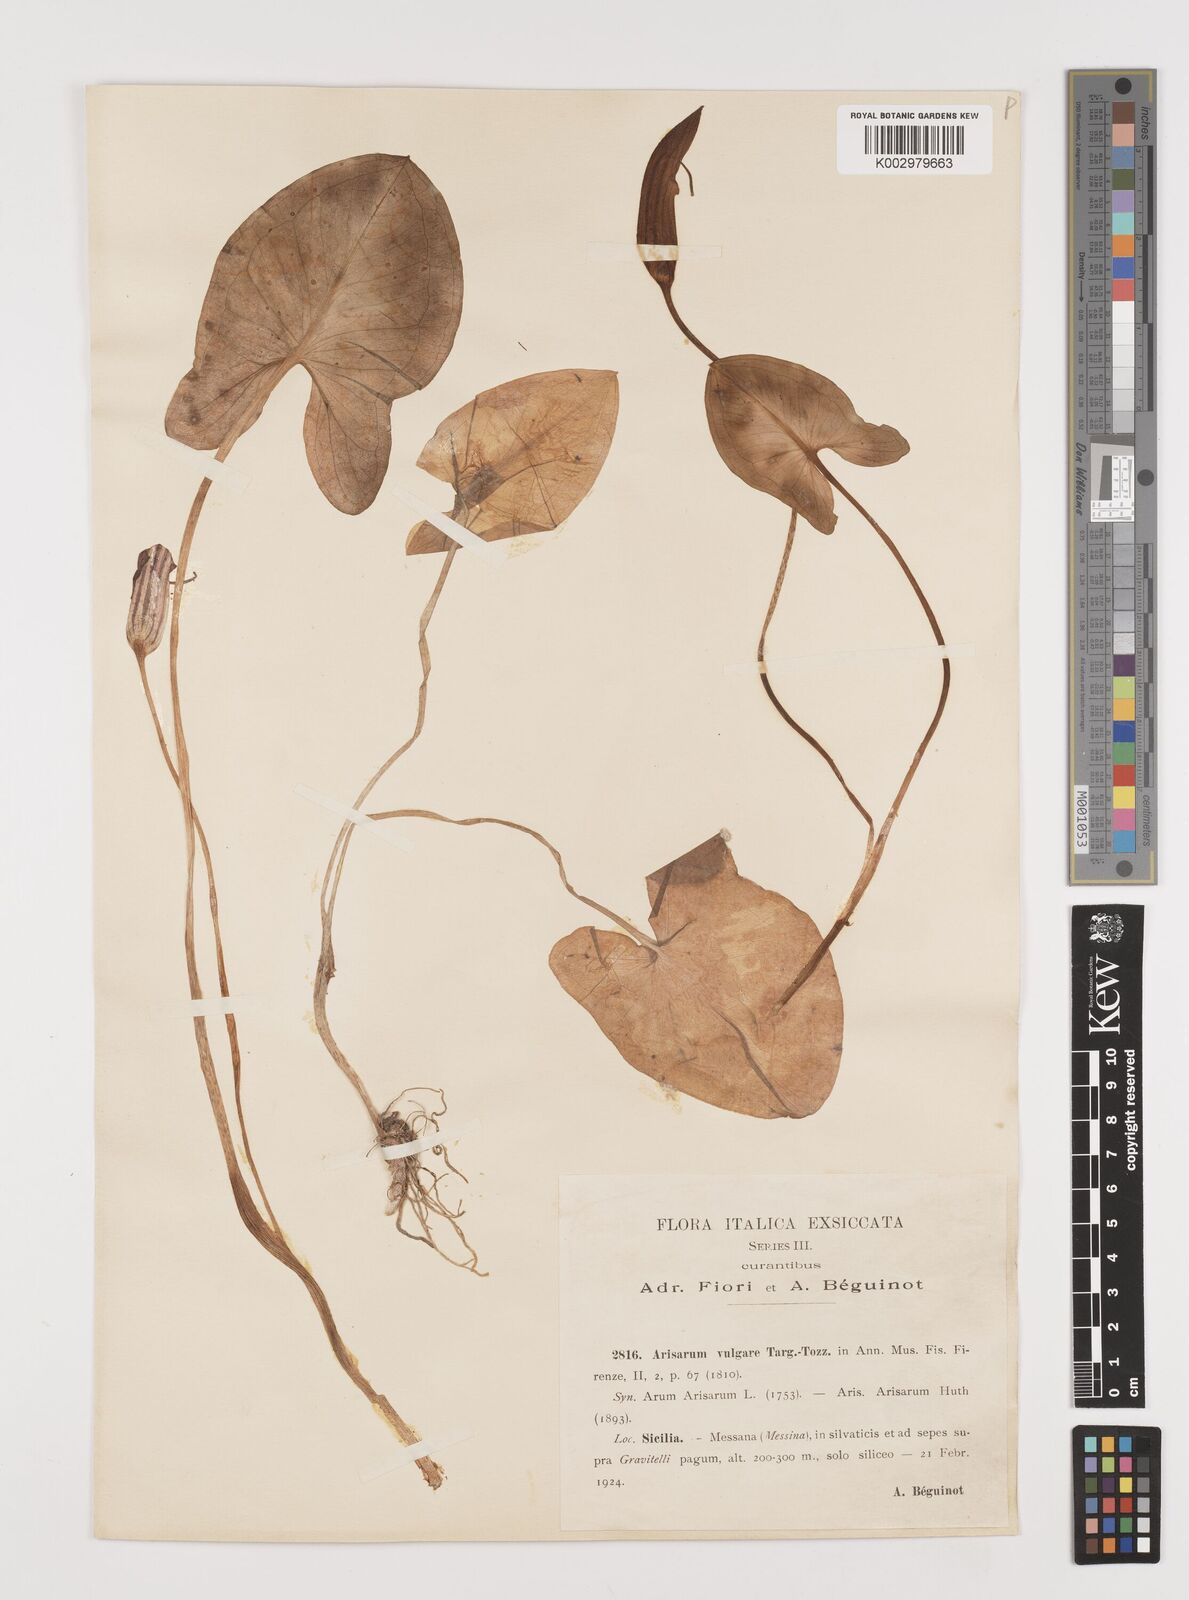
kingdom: Plantae
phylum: Tracheophyta
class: Liliopsida
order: Alismatales
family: Araceae
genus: Arisarum
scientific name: Arisarum vulgare
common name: Common arisarum
